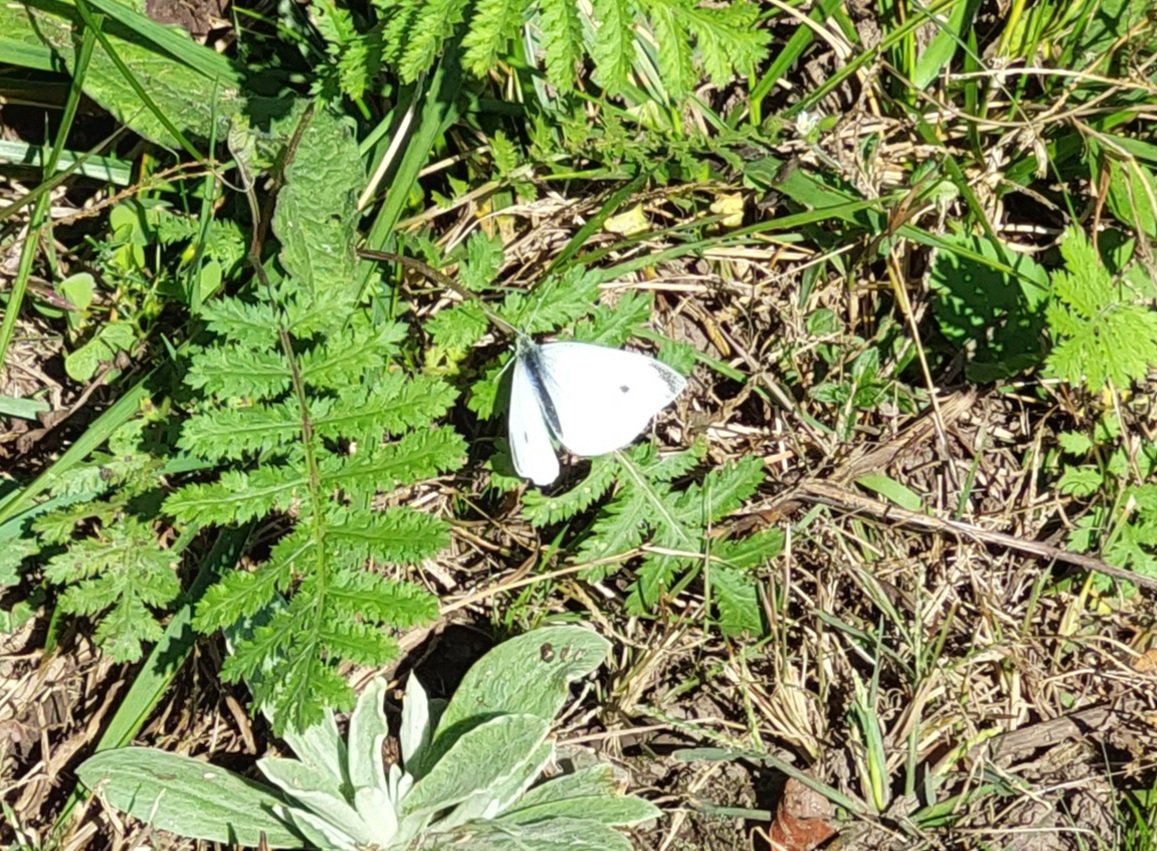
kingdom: Animalia
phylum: Arthropoda
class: Insecta
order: Lepidoptera
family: Pieridae
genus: Pieris
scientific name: Pieris rapae
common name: Cabbage White
